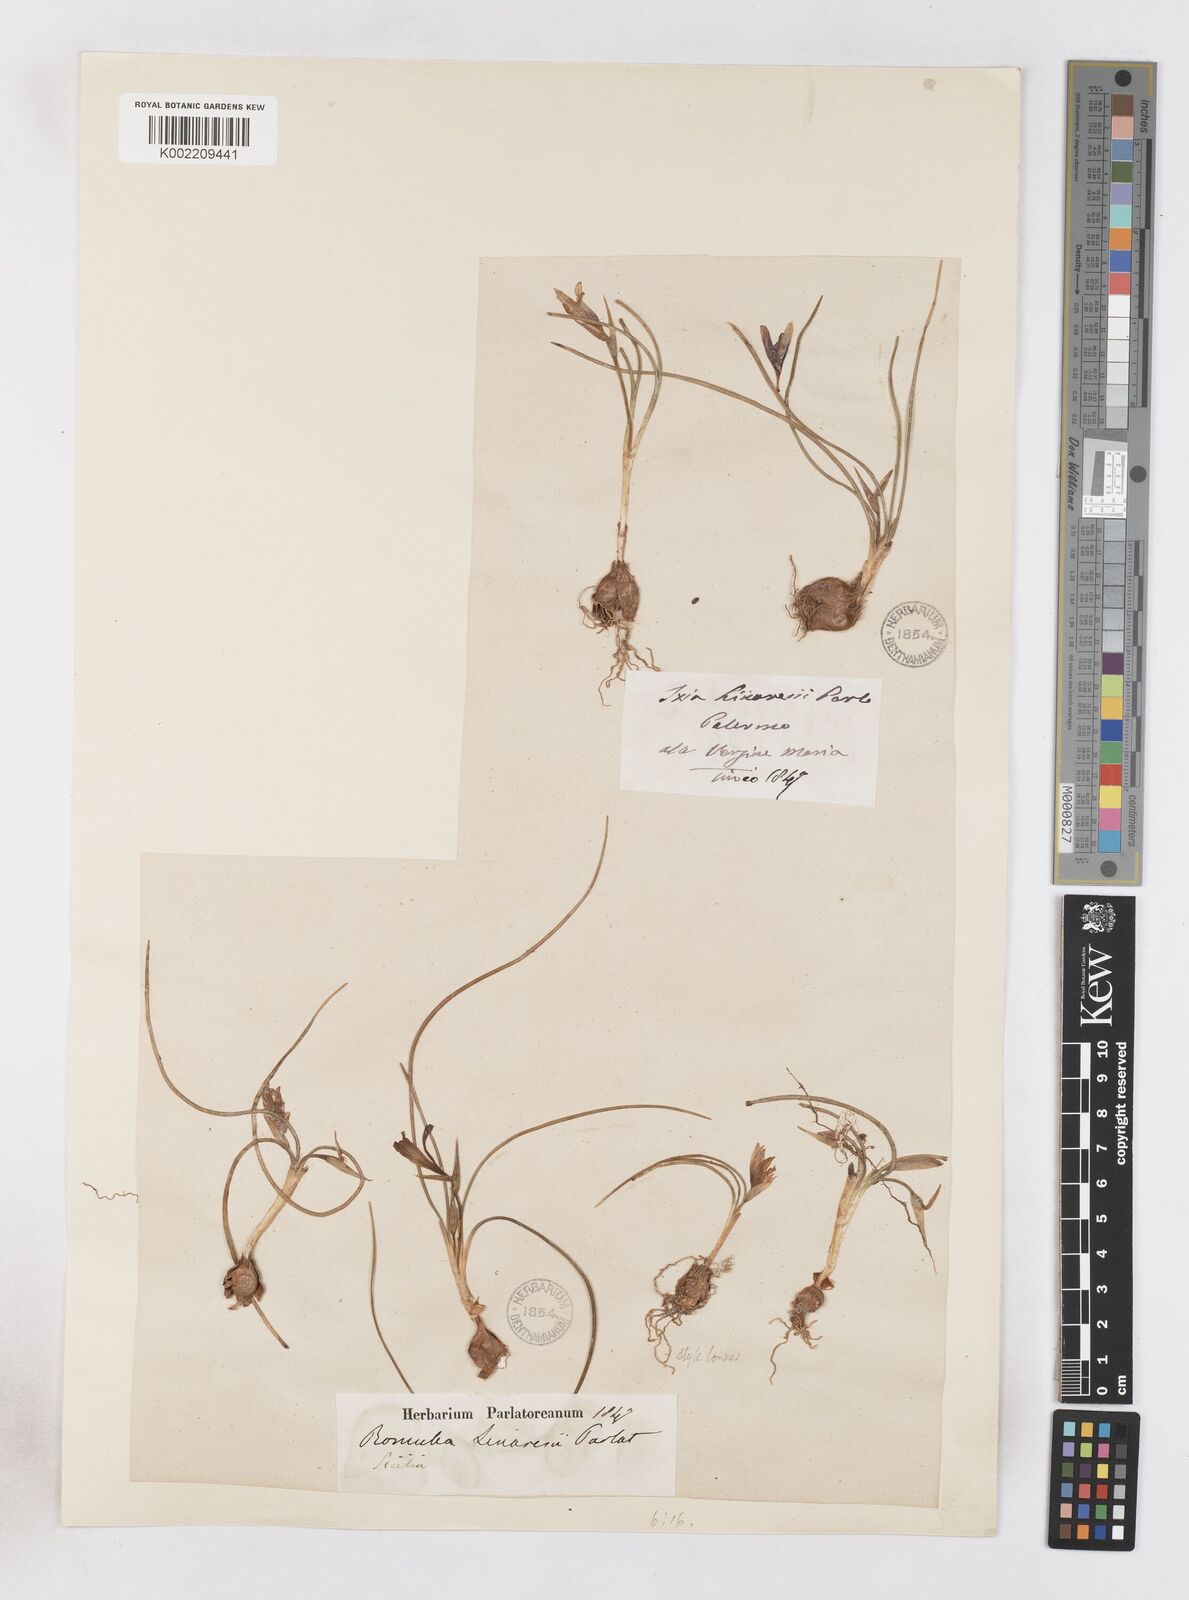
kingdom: Plantae
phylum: Tracheophyta
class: Liliopsida
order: Asparagales
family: Iridaceae
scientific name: Iridaceae
